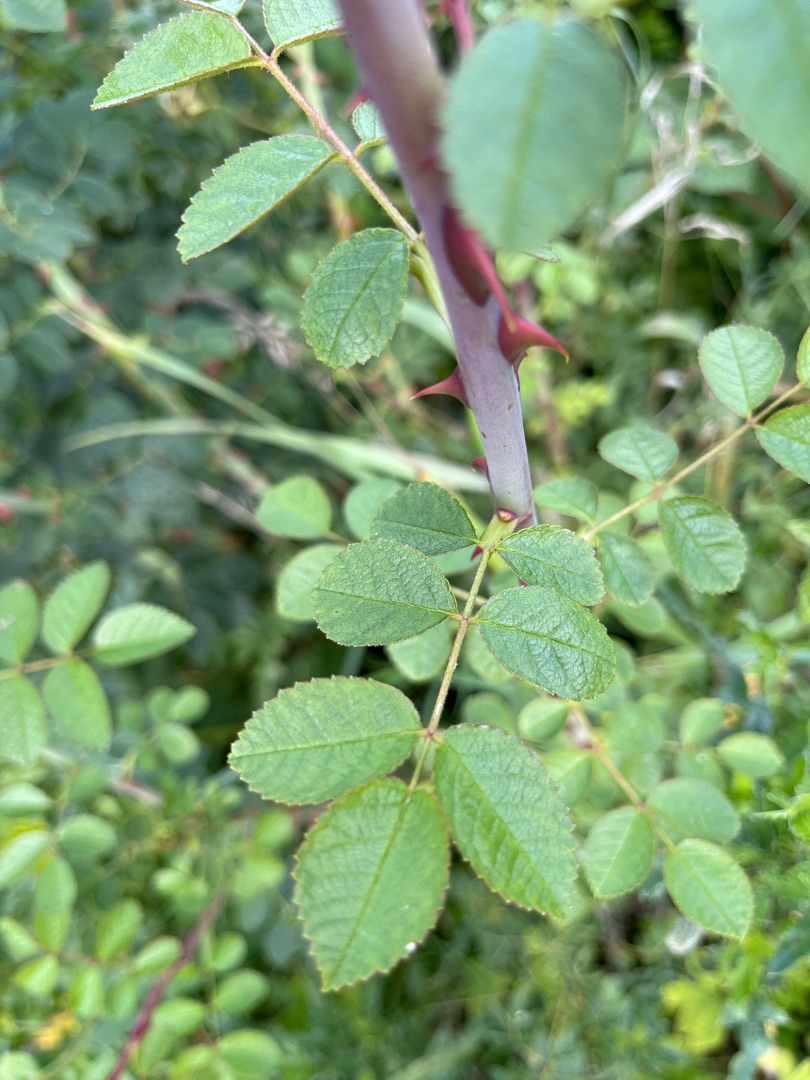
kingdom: Plantae
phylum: Tracheophyta
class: Magnoliopsida
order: Rosales
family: Rosaceae
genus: Rosa
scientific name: Rosa
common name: Roseslægten
